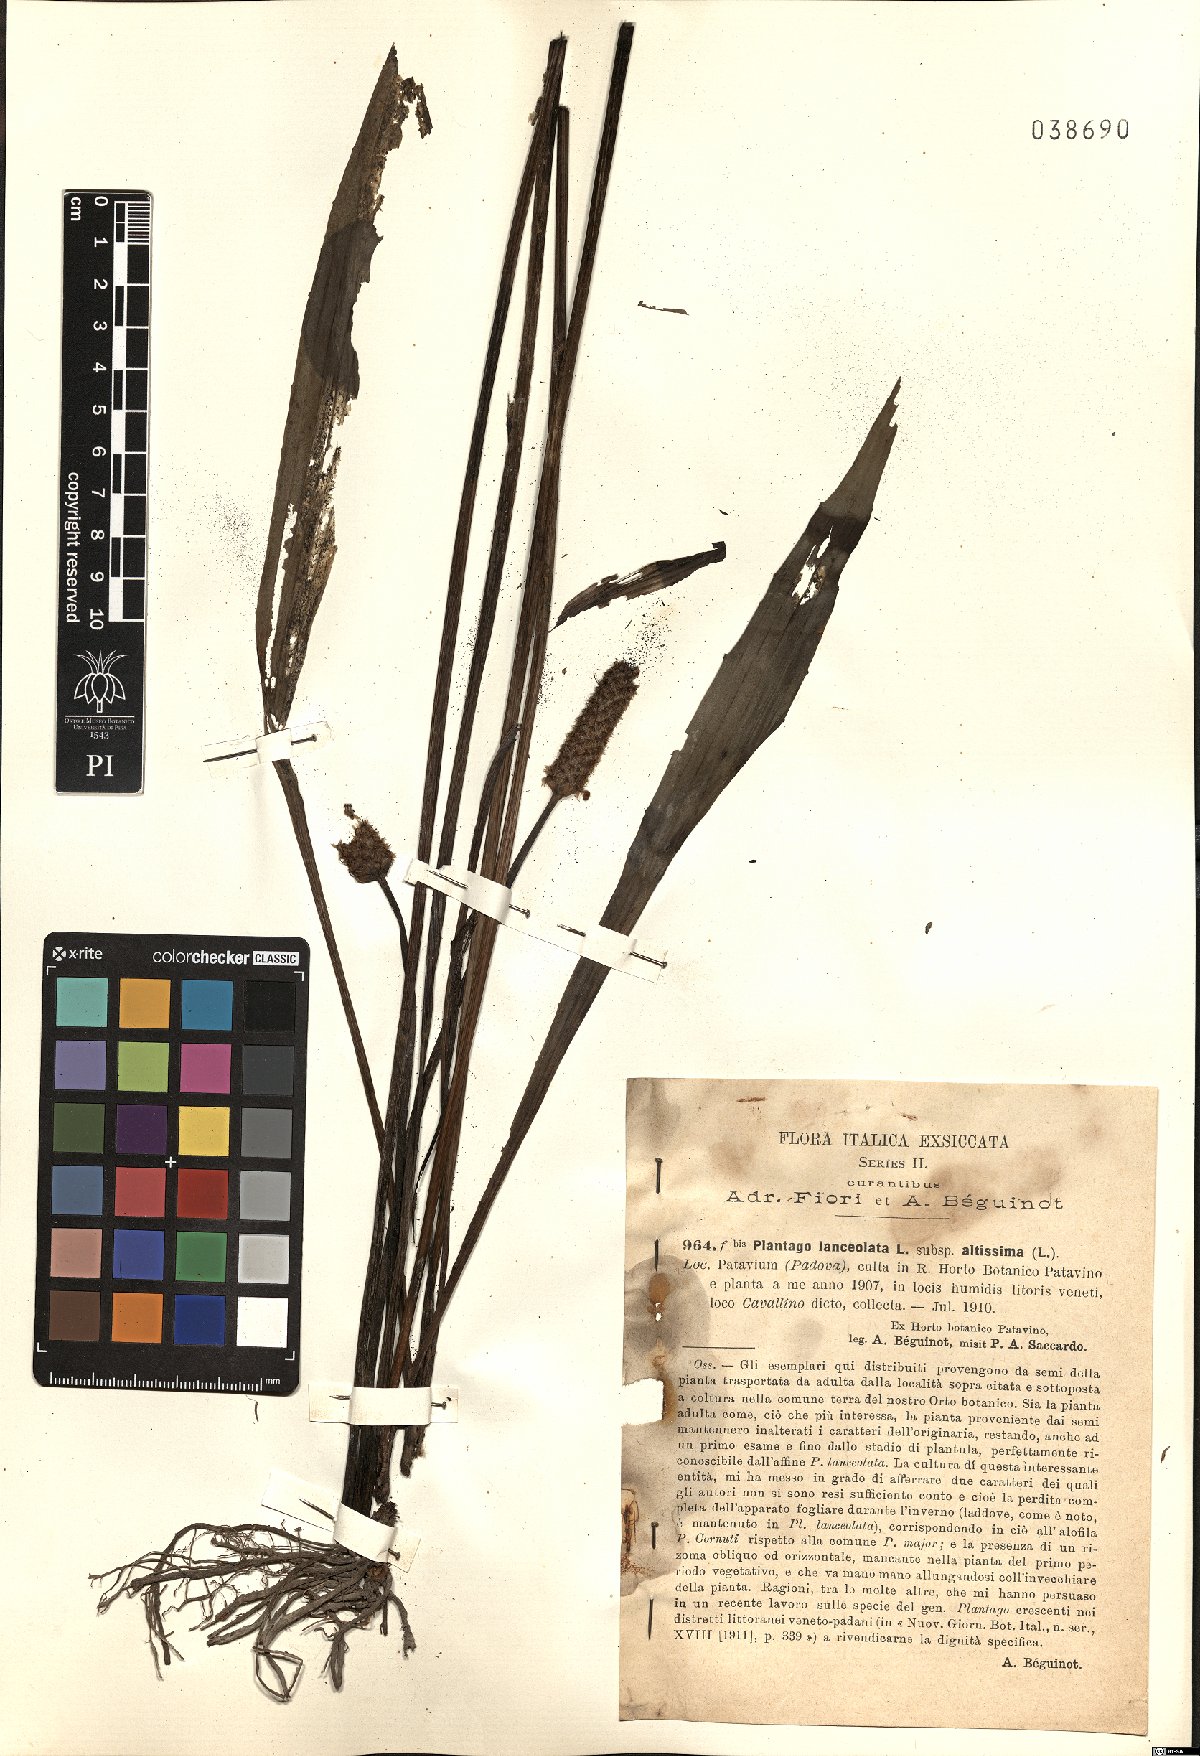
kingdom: Plantae
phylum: Tracheophyta
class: Magnoliopsida
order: Lamiales
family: Plantaginaceae
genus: Plantago
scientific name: Plantago altissima
